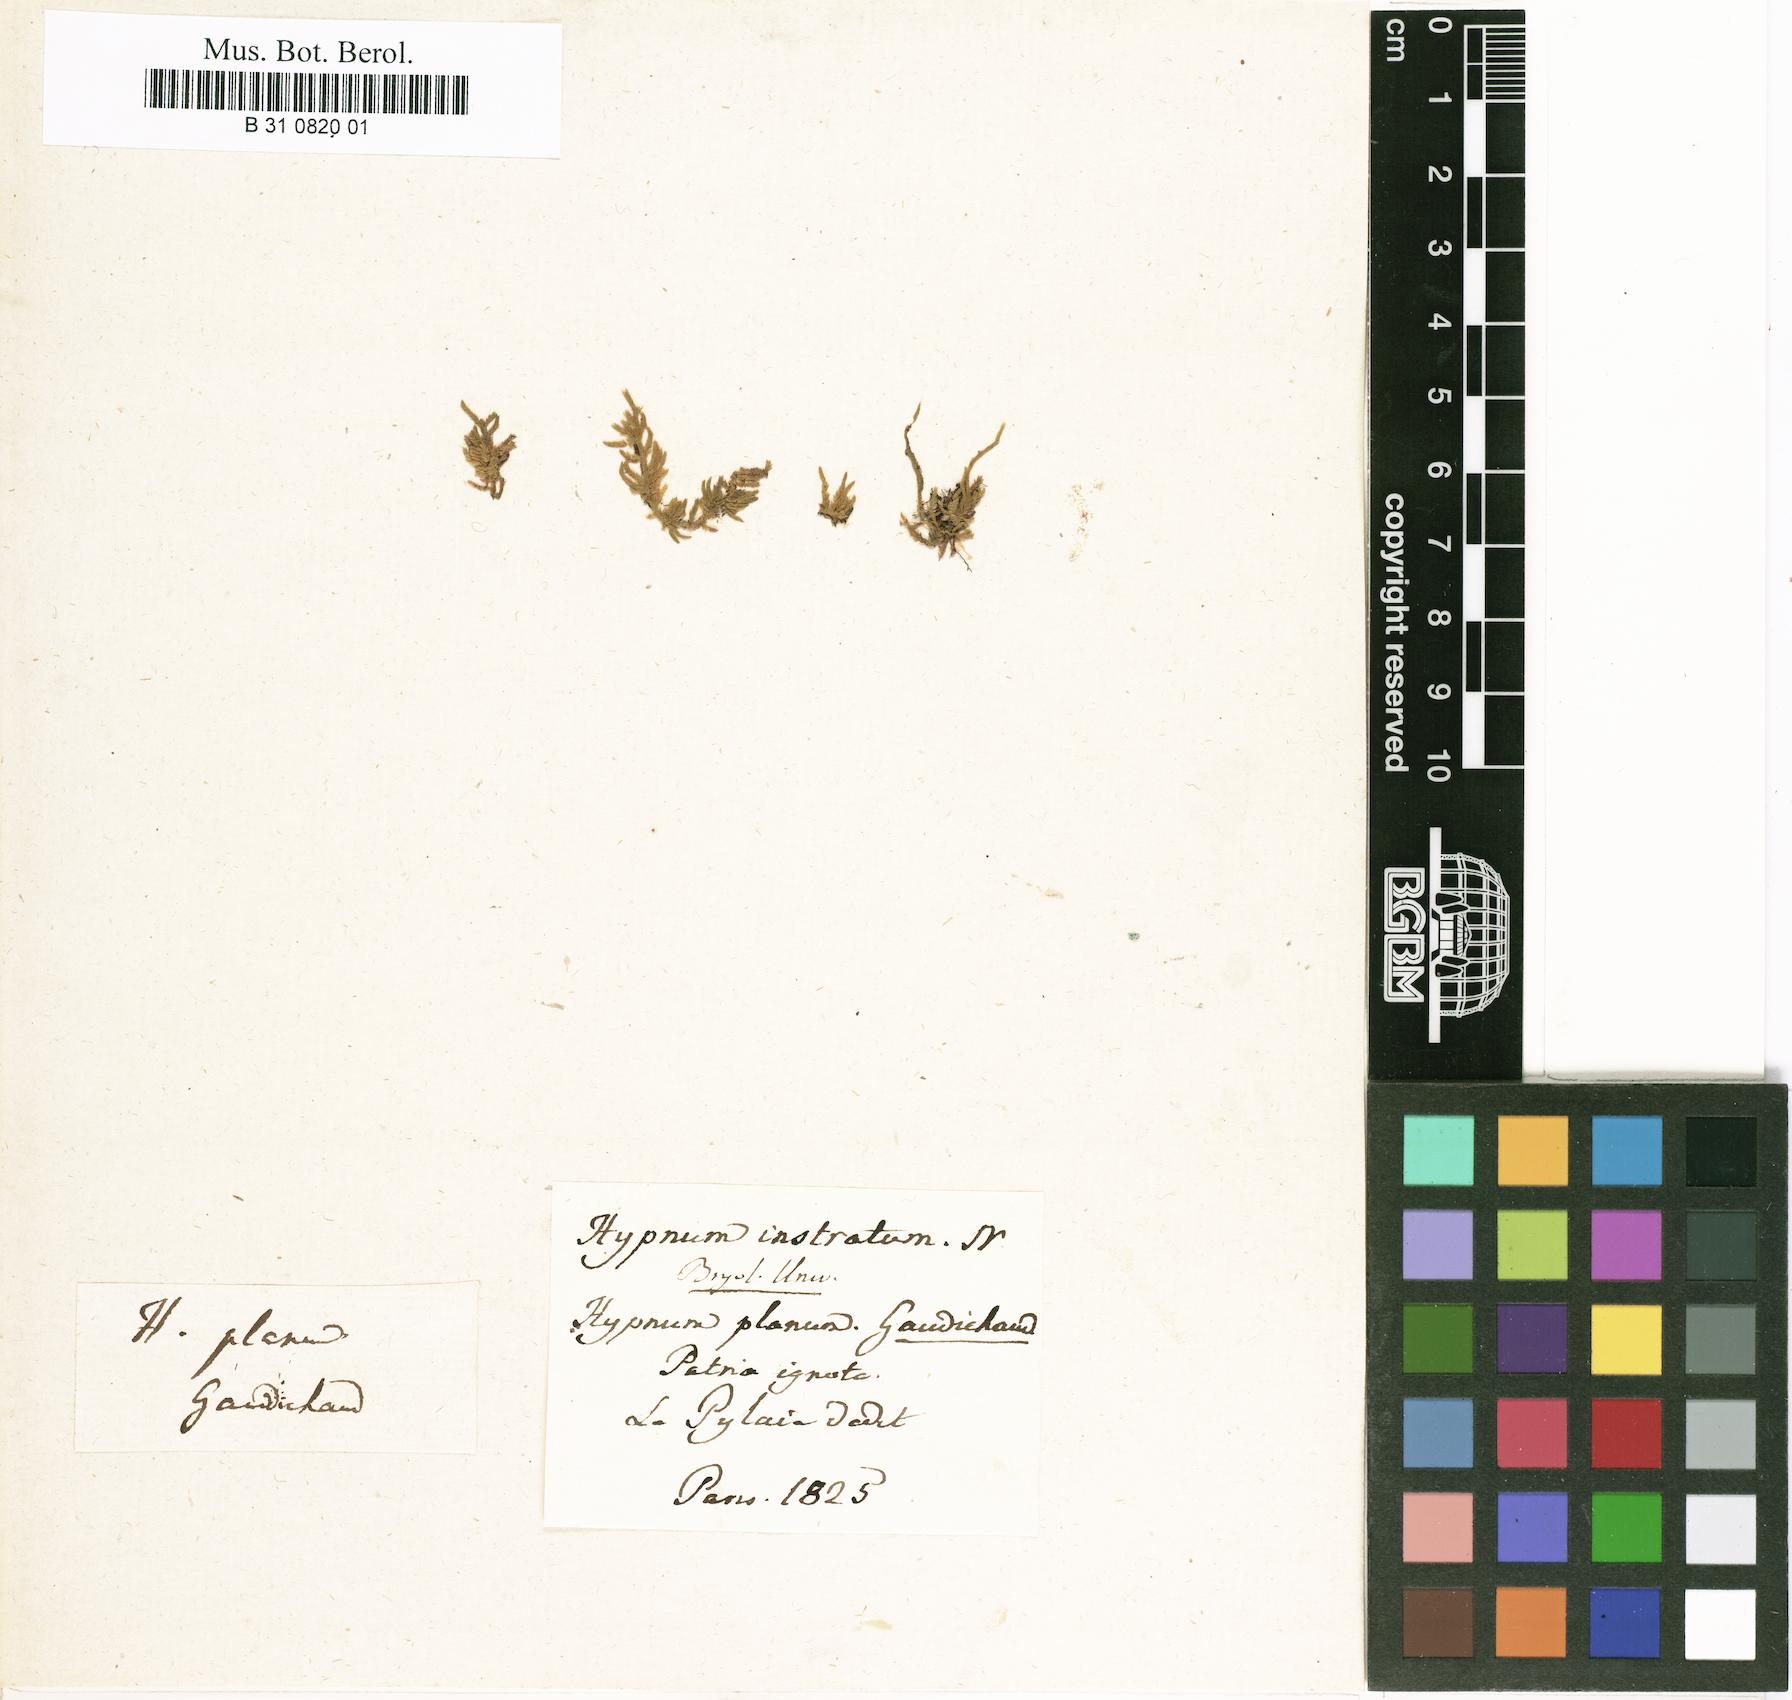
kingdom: Plantae
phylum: Bryophyta
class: Bryopsida
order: Hypnales
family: Pylaisiadelphaceae
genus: Taxithelium
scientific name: Taxithelium instratum
